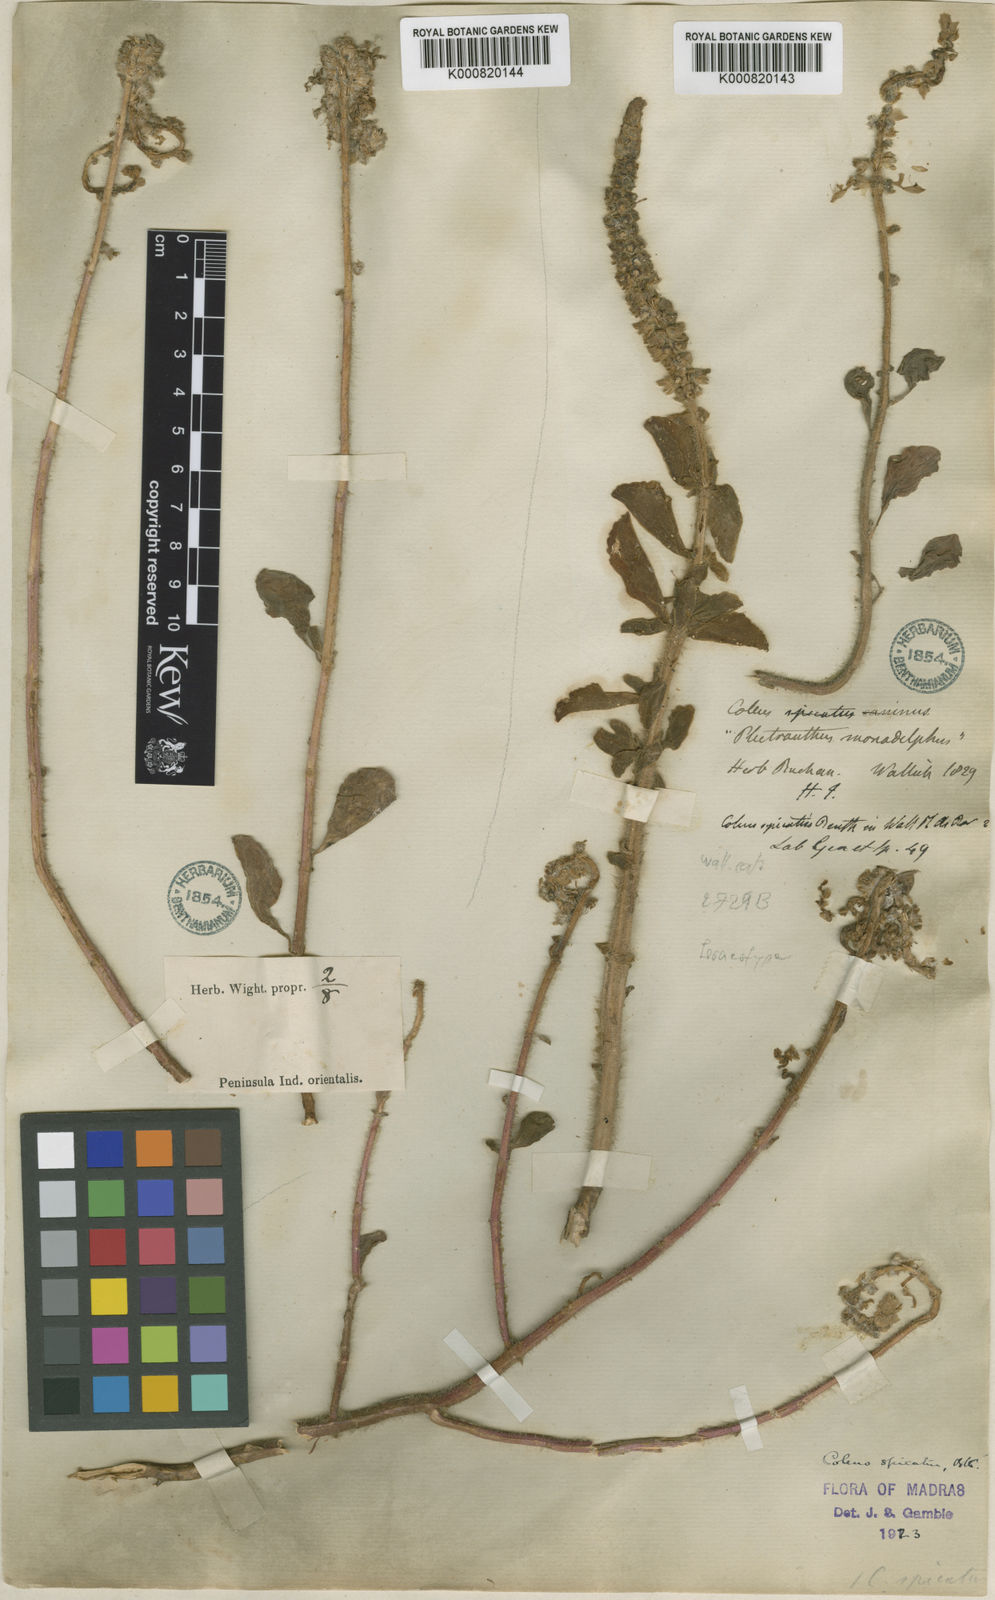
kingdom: Plantae
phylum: Tracheophyta
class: Magnoliopsida
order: Lamiales
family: Lamiaceae
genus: Coleus
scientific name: Coleus caninus
